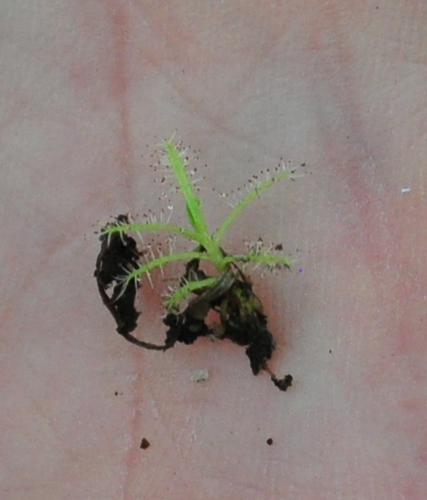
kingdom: Plantae
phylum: Tracheophyta
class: Magnoliopsida
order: Caryophyllales
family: Droseraceae
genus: Drosera
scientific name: Drosera indica
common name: Indian sundew
